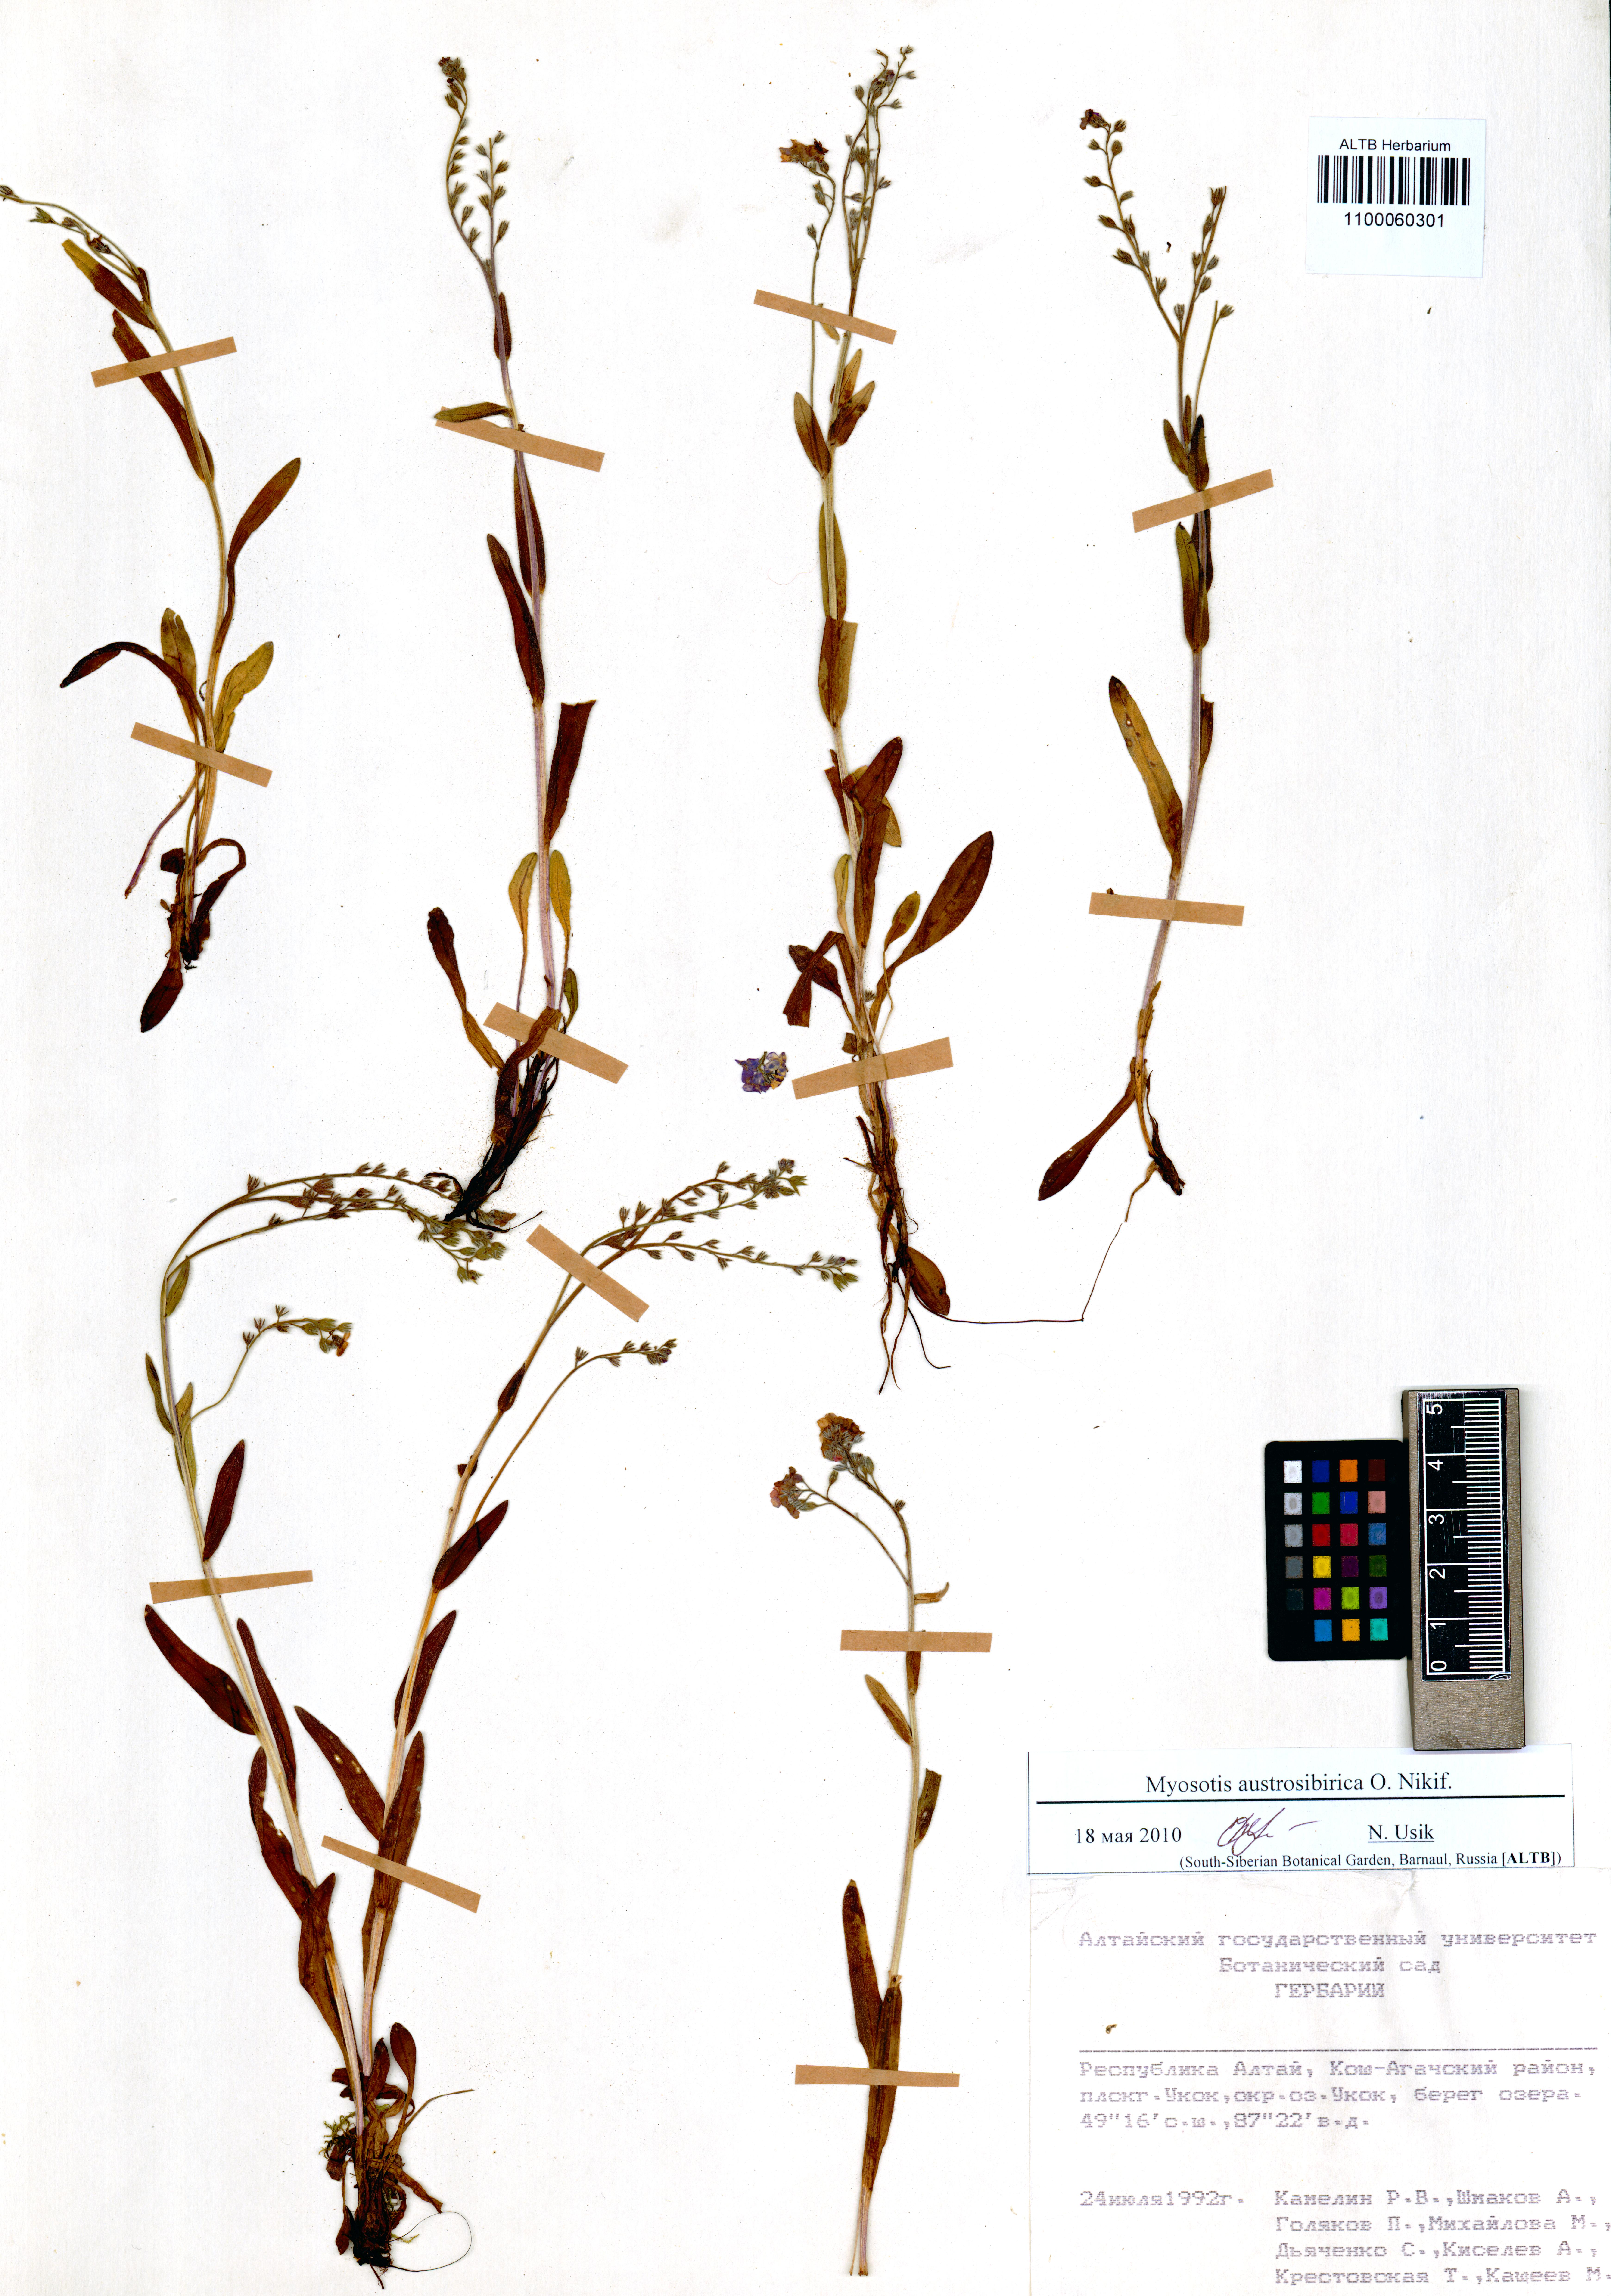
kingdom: Plantae
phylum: Tracheophyta
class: Magnoliopsida
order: Boraginales
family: Boraginaceae
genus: Myosotis
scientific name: Myosotis austrosibirica
